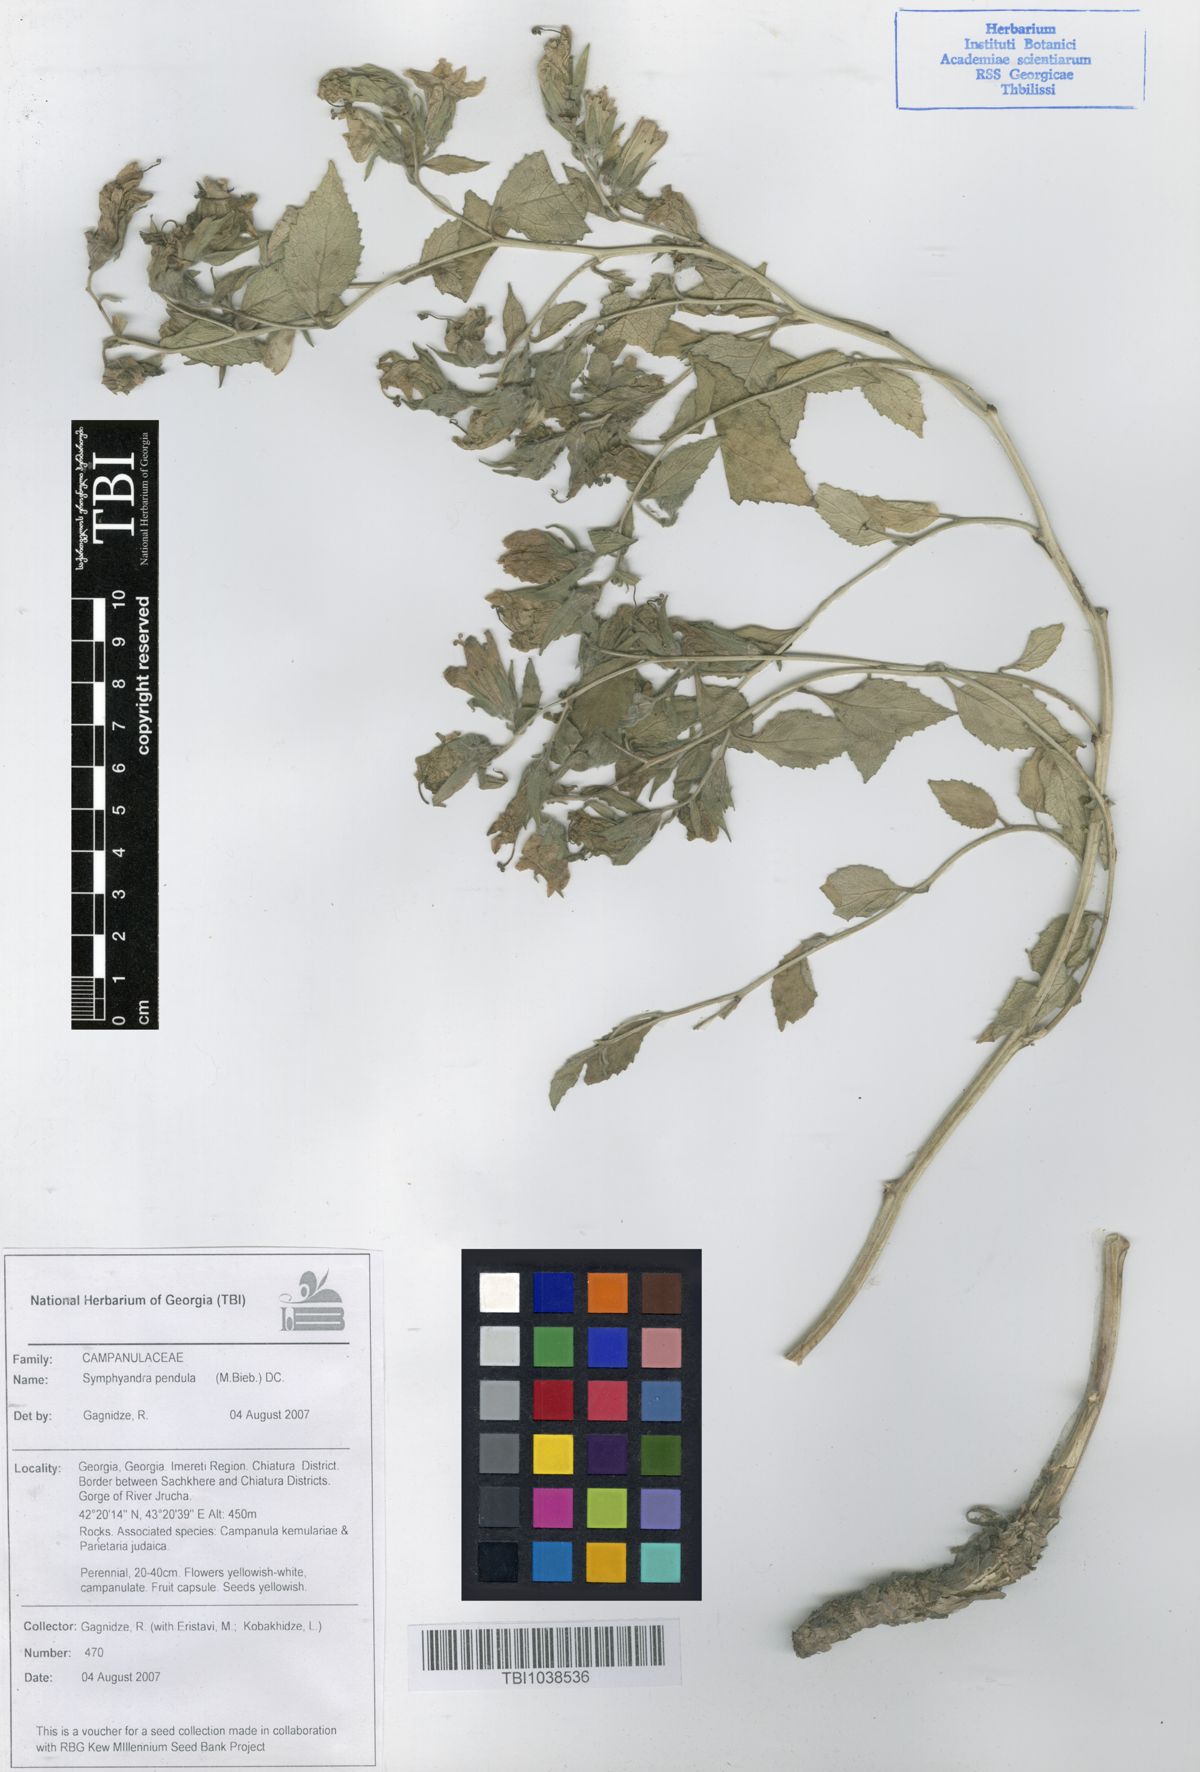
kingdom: Plantae
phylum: Tracheophyta
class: Magnoliopsida
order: Asterales
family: Campanulaceae
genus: Campanula
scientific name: Campanula pendula
